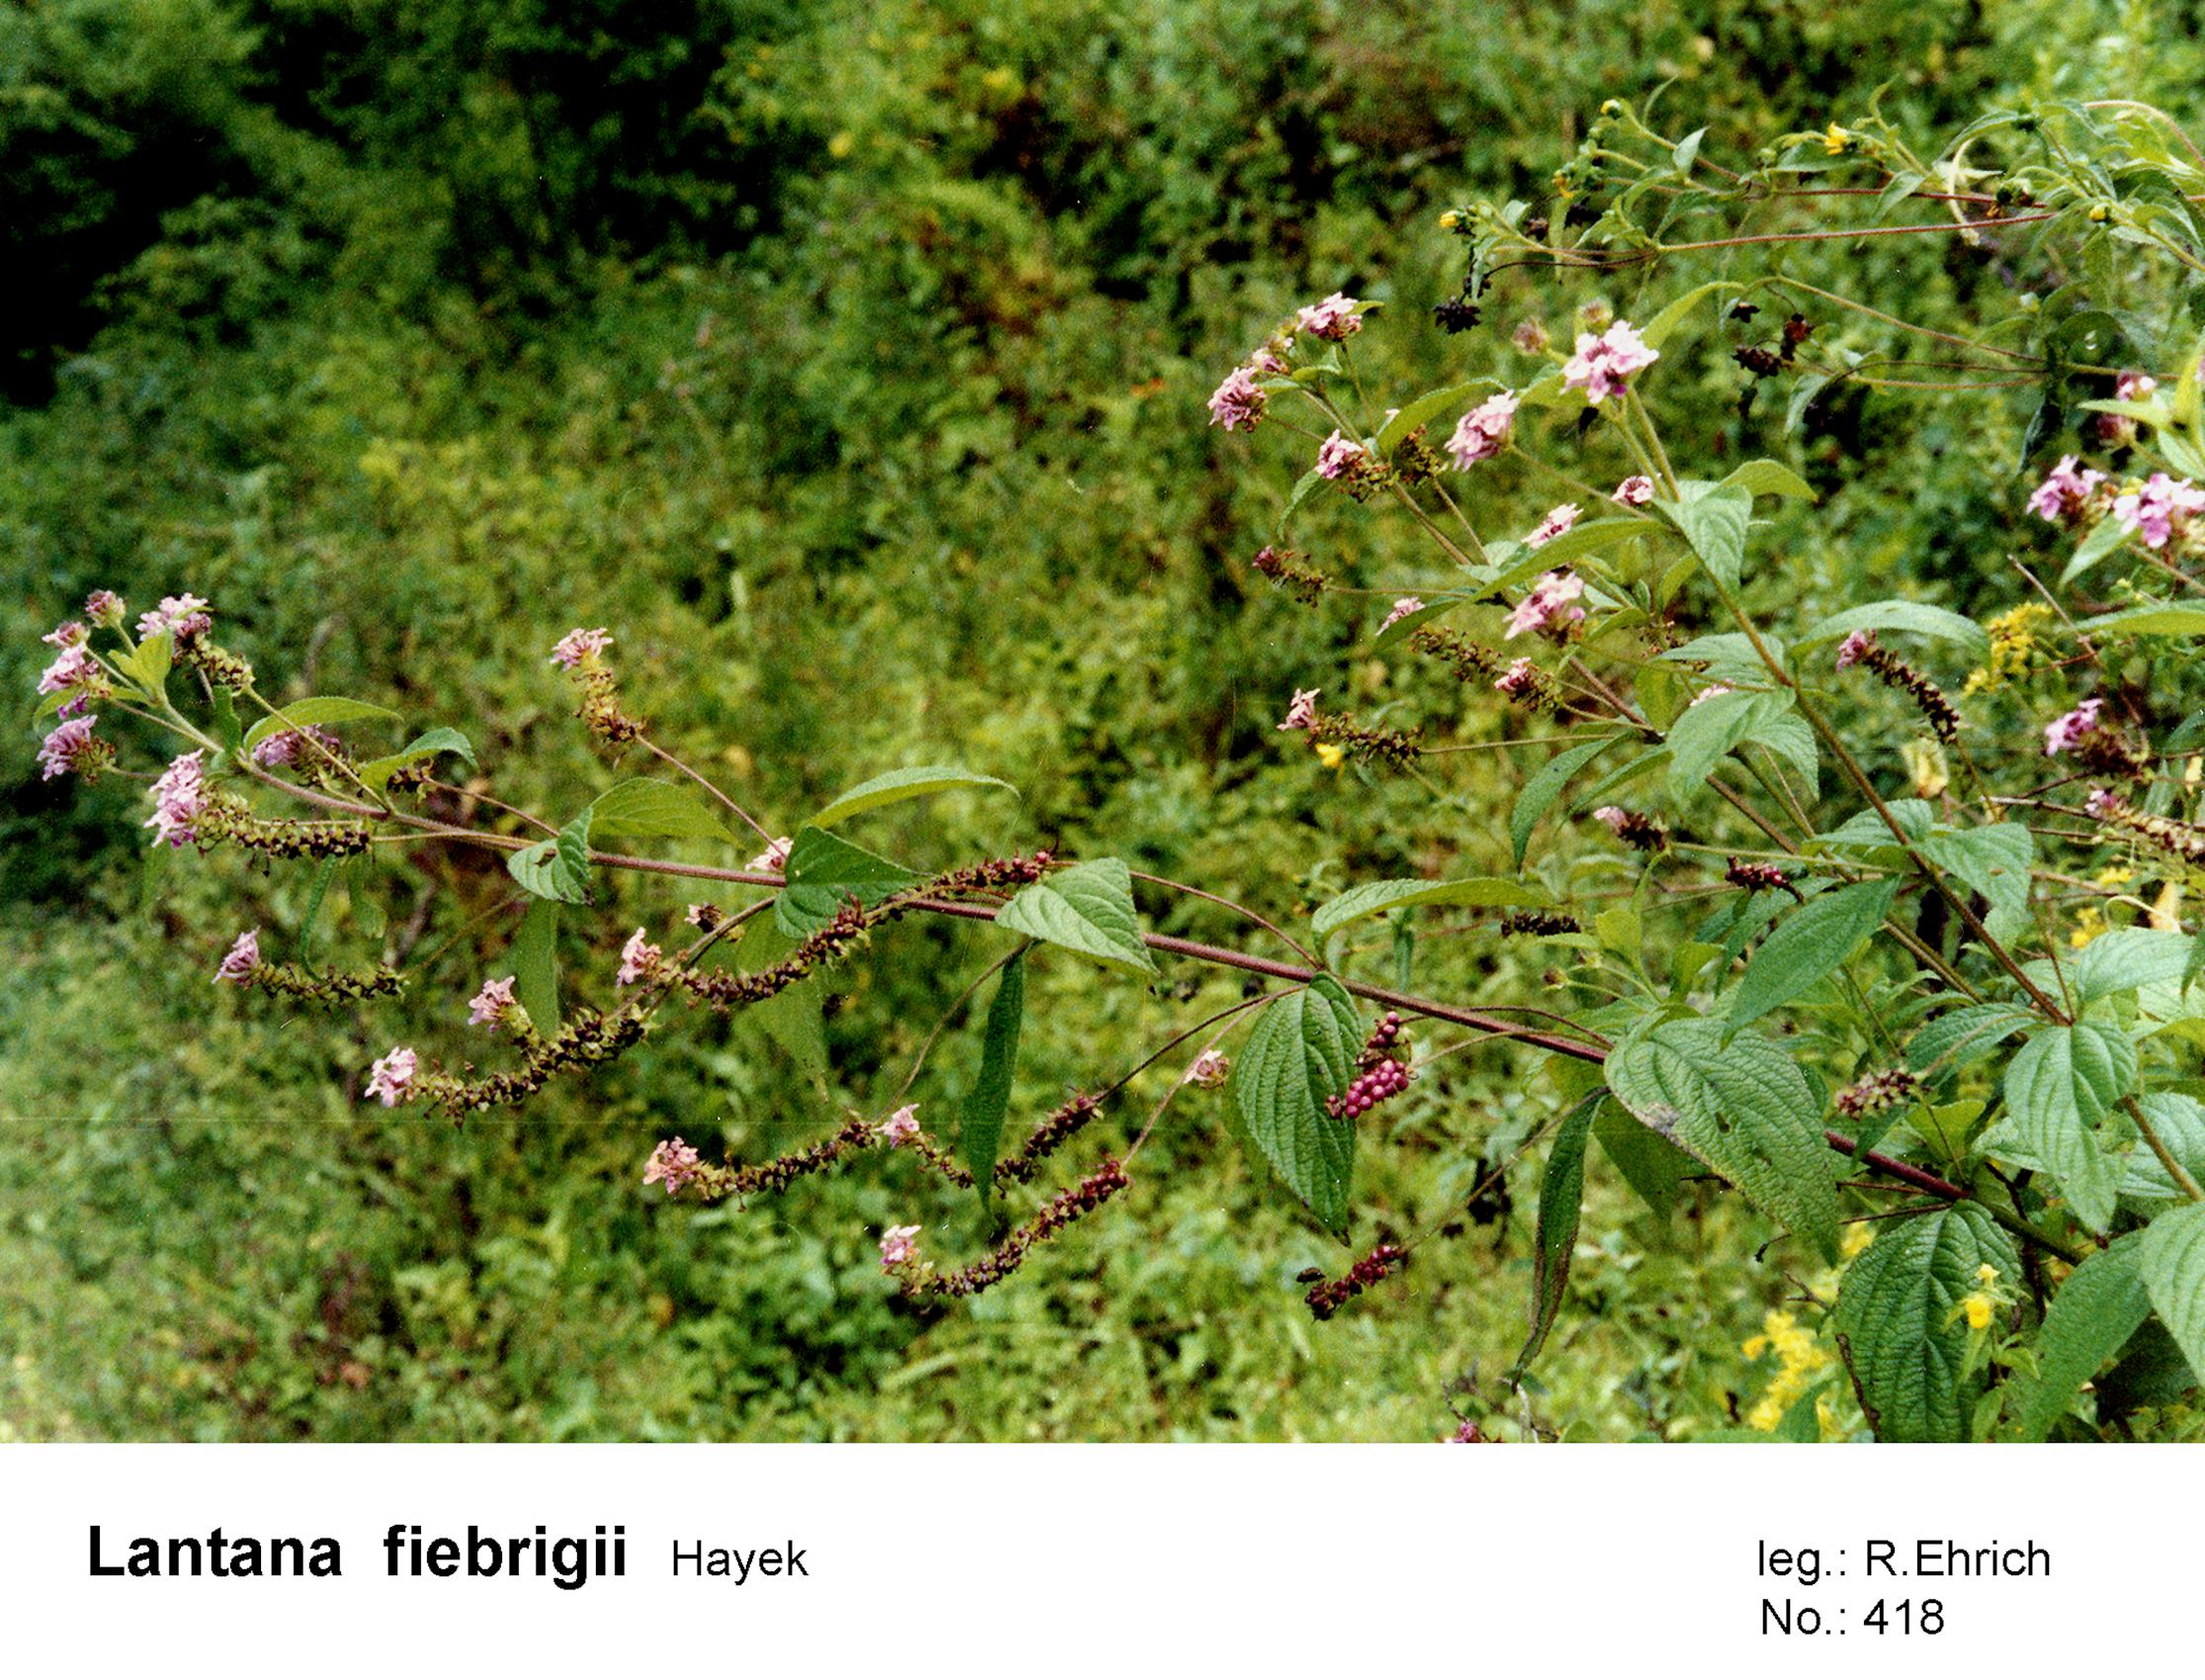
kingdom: Plantae
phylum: Tracheophyta
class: Magnoliopsida
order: Lamiales
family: Verbenaceae
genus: Lantana
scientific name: Lantana trifolia
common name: Sweet-sage
